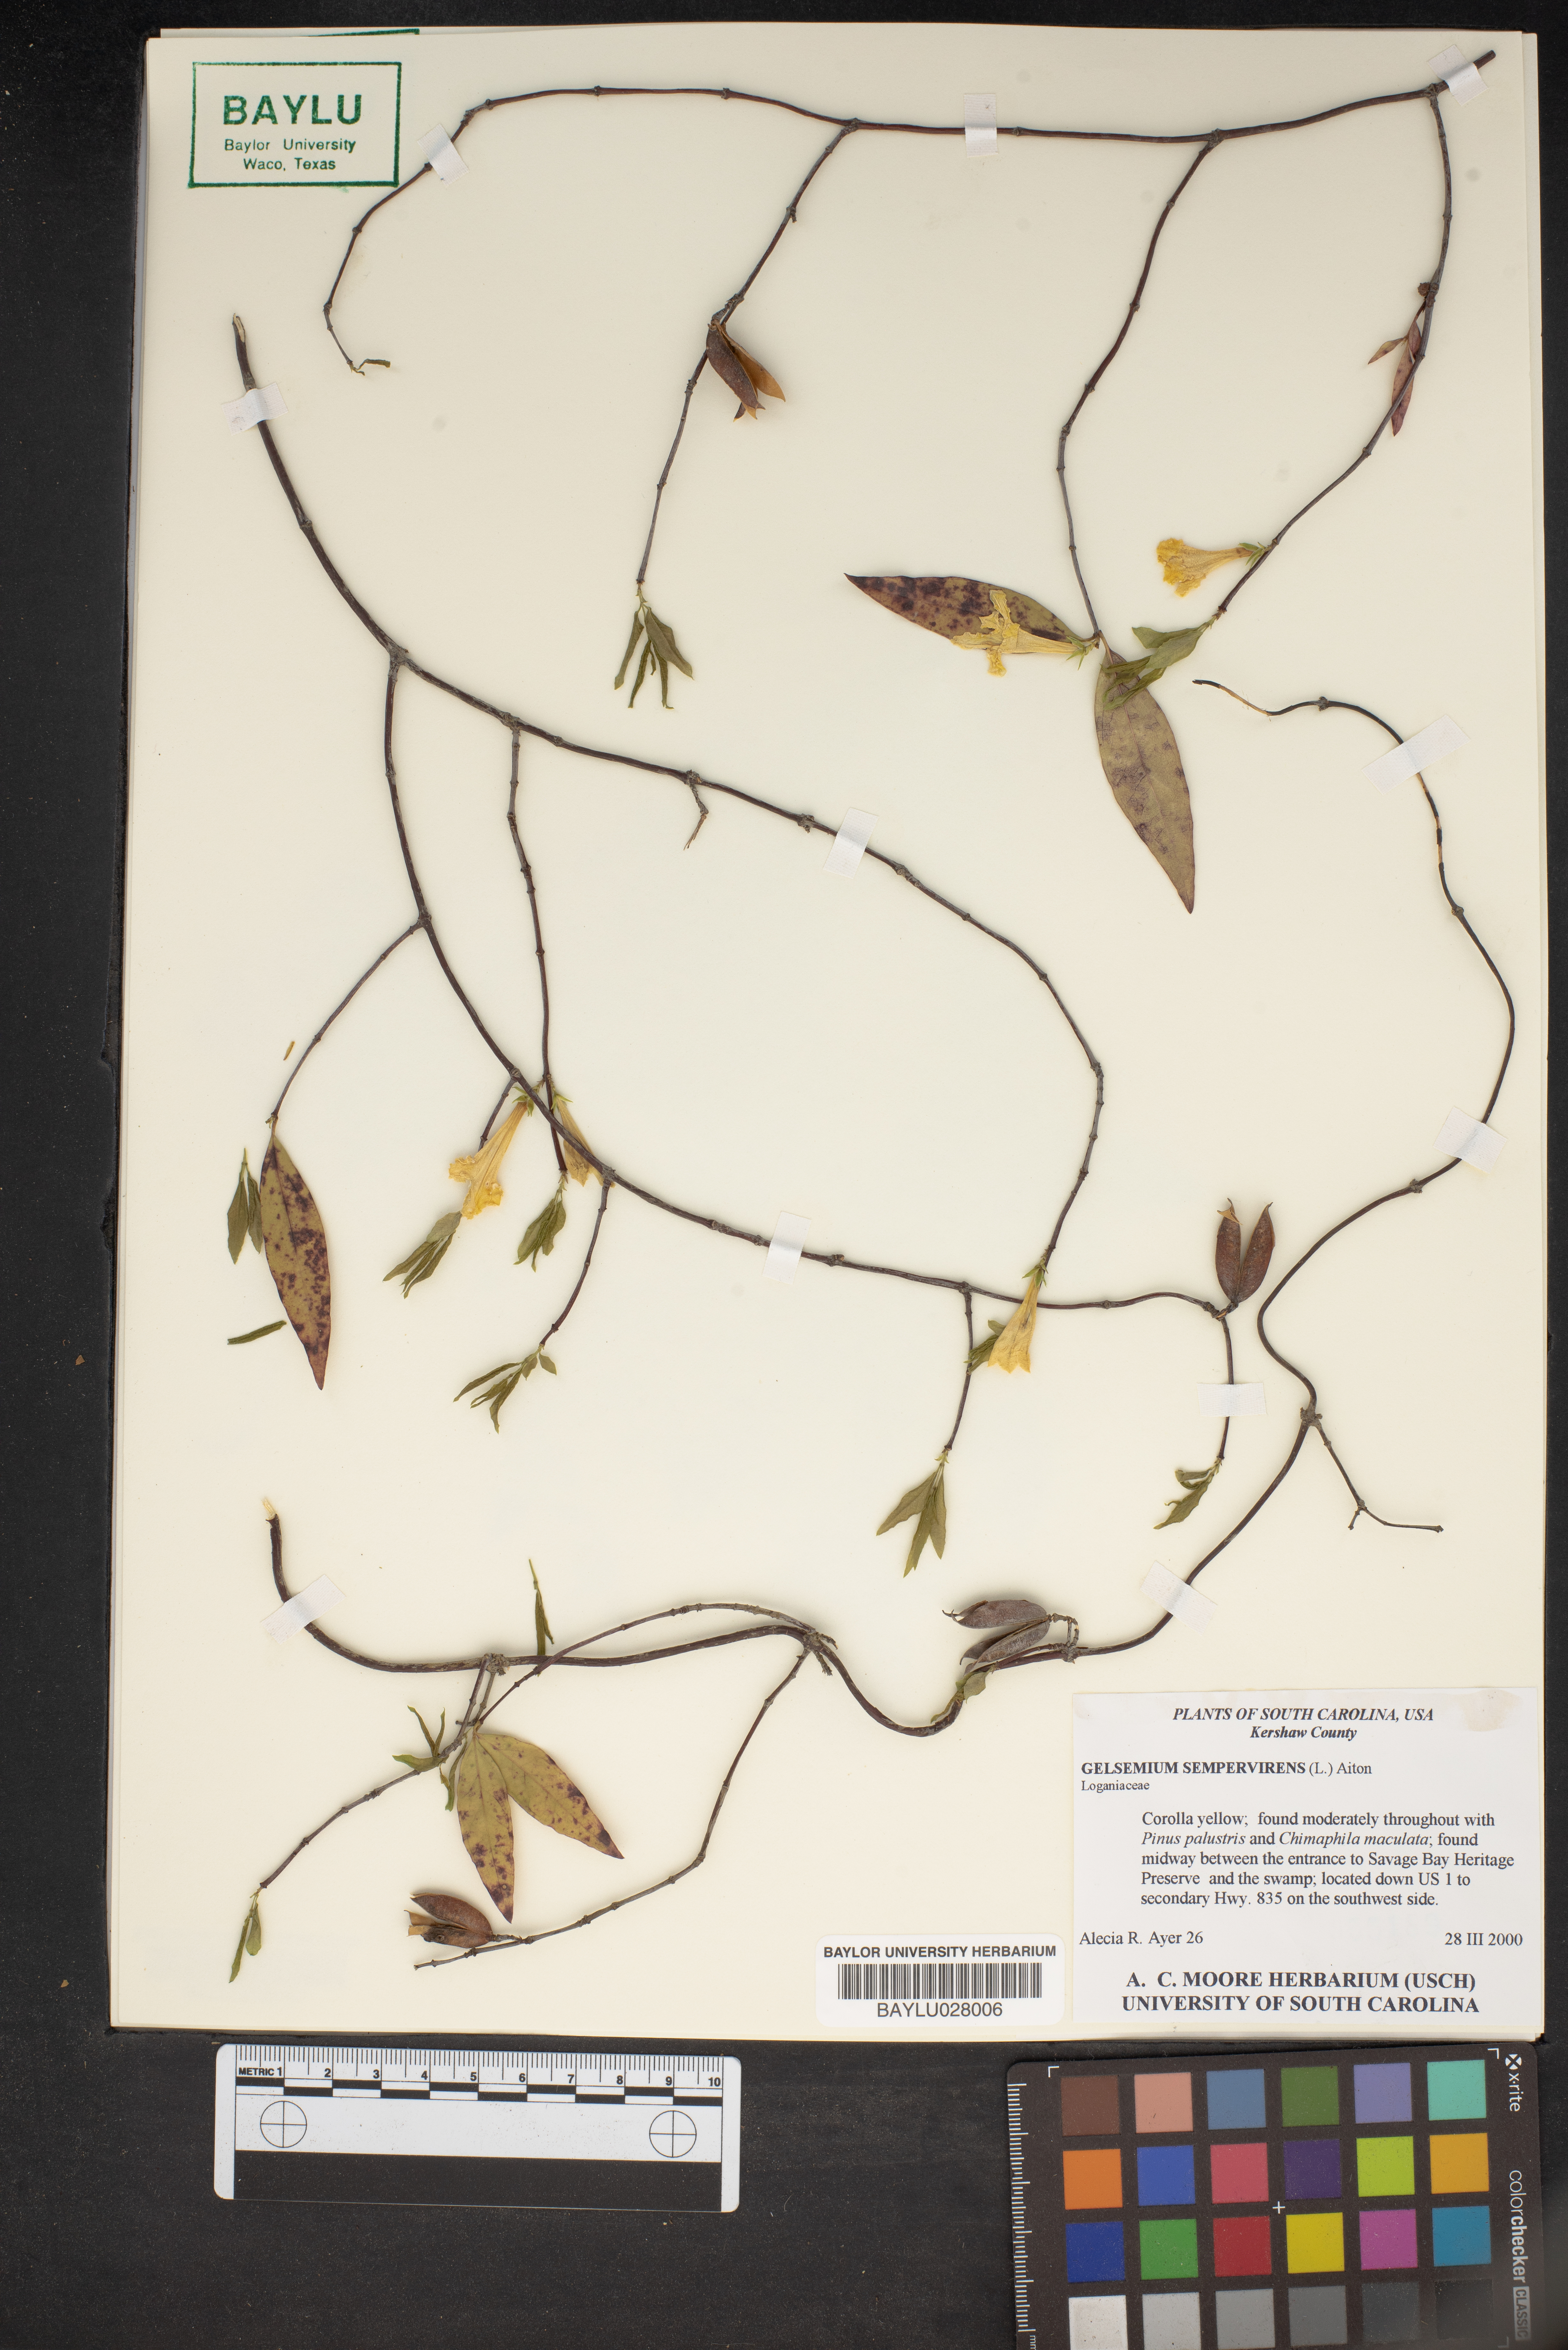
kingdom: Plantae
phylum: Tracheophyta
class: Magnoliopsida
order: Gentianales
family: Gelsemiaceae
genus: Gelsemium
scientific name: Gelsemium sempervirens
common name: Carolina-jasmine
